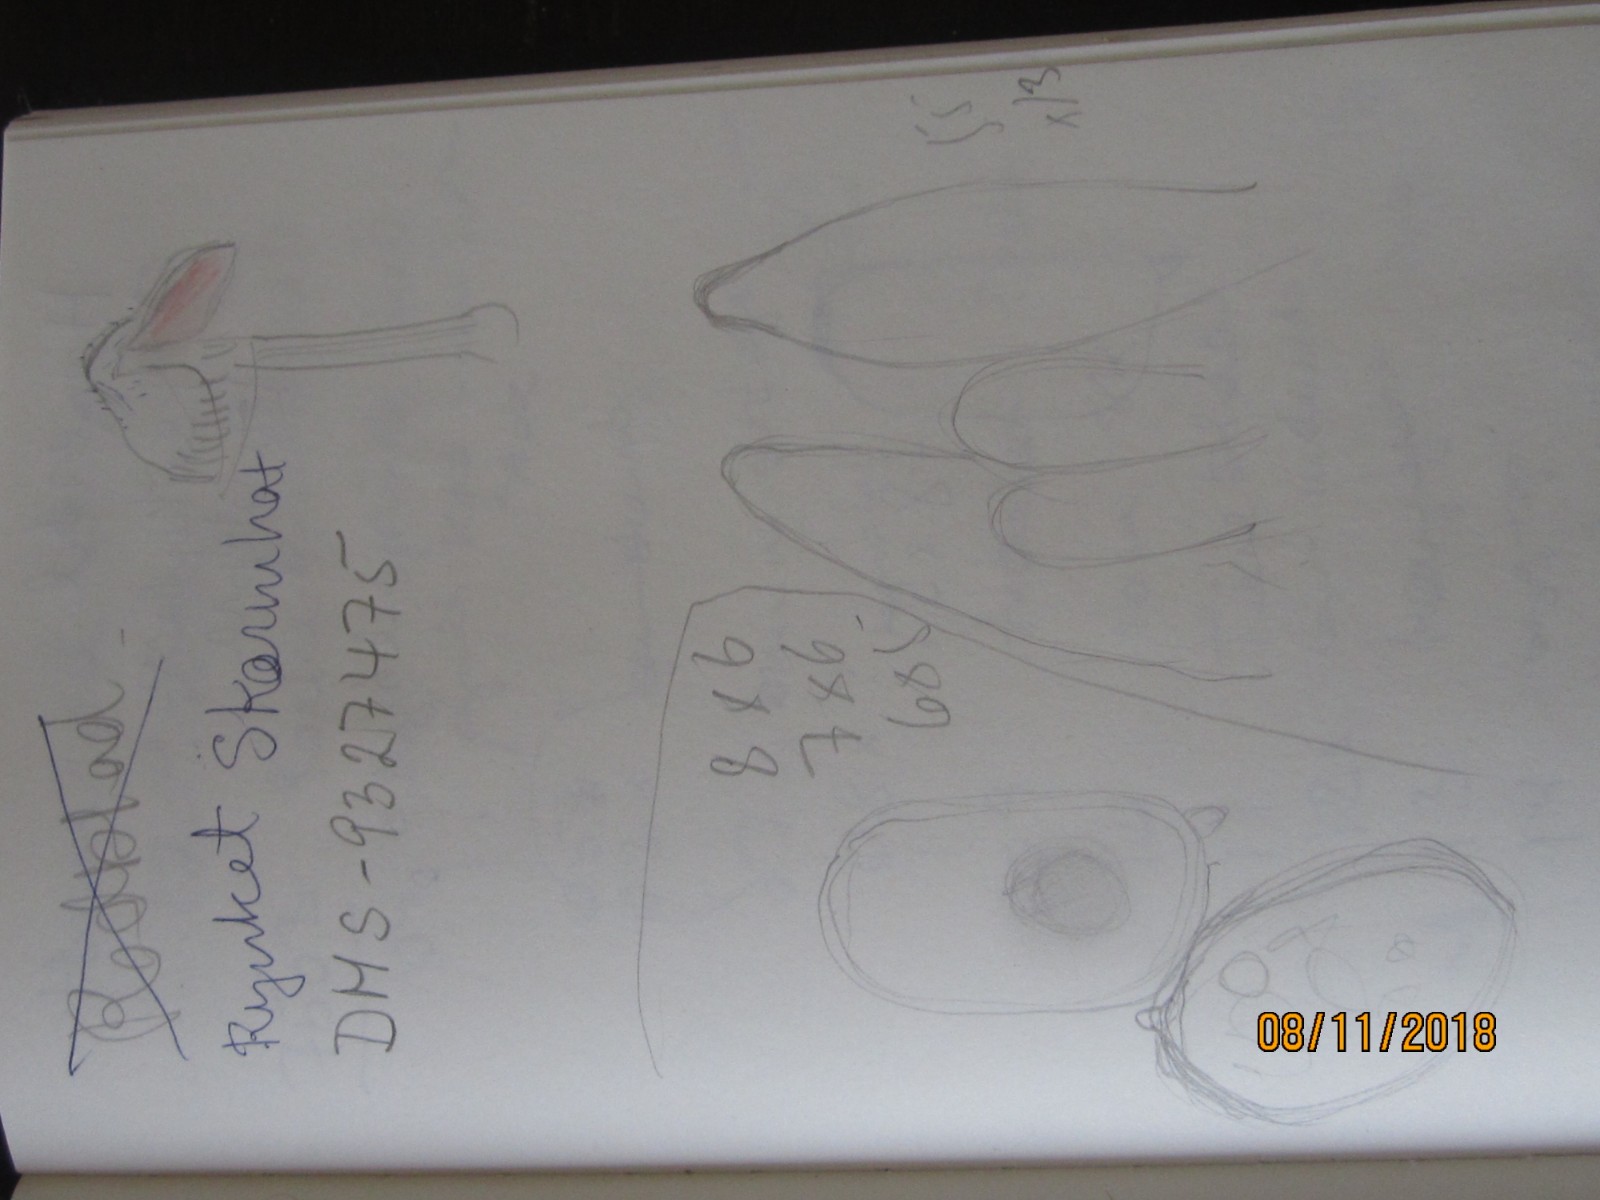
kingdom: Fungi
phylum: Basidiomycota
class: Agaricomycetes
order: Agaricales
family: Pluteaceae
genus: Pluteus
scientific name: Pluteus
